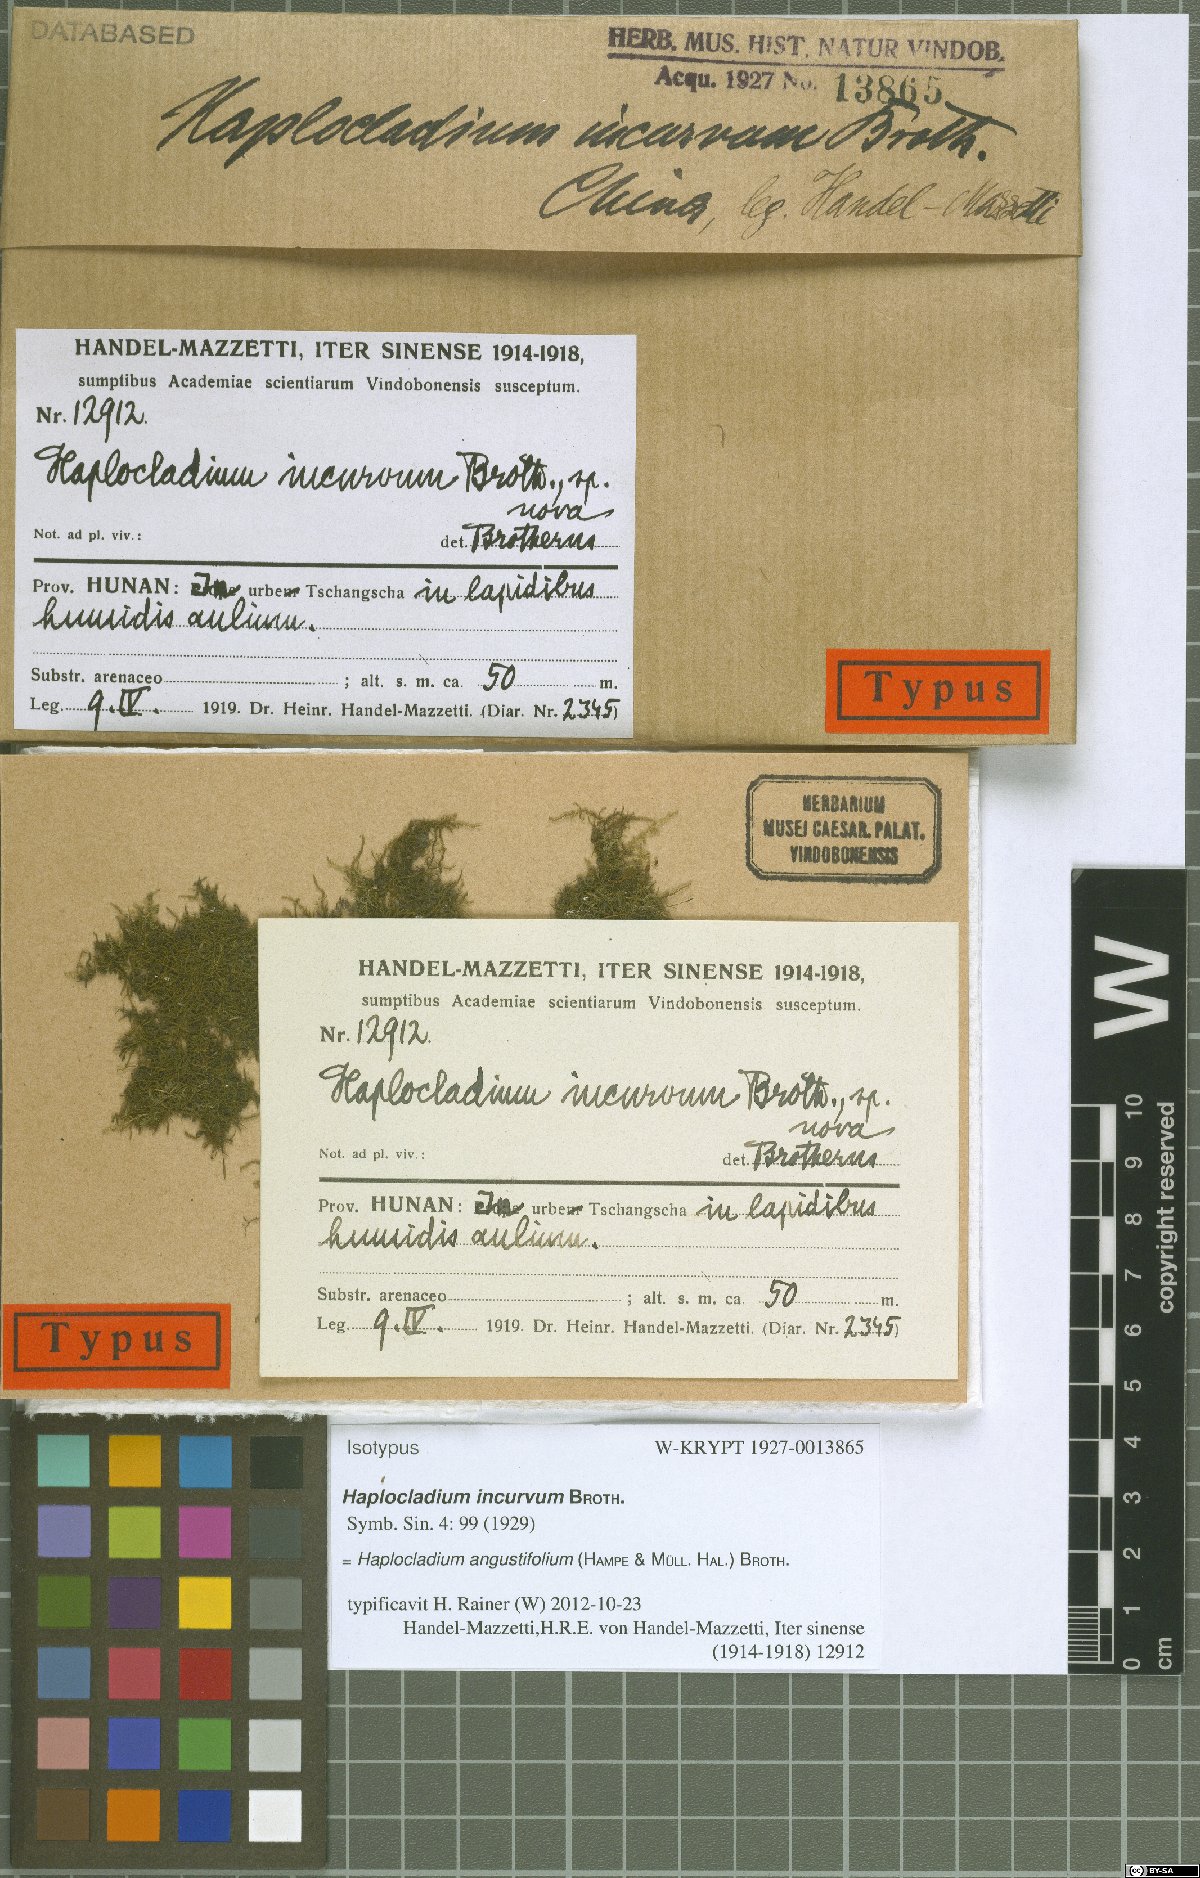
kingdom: Plantae
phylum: Bryophyta
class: Bryopsida
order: Hypnales
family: Leskeaceae
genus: Haplocladium
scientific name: Haplocladium angustifolium
